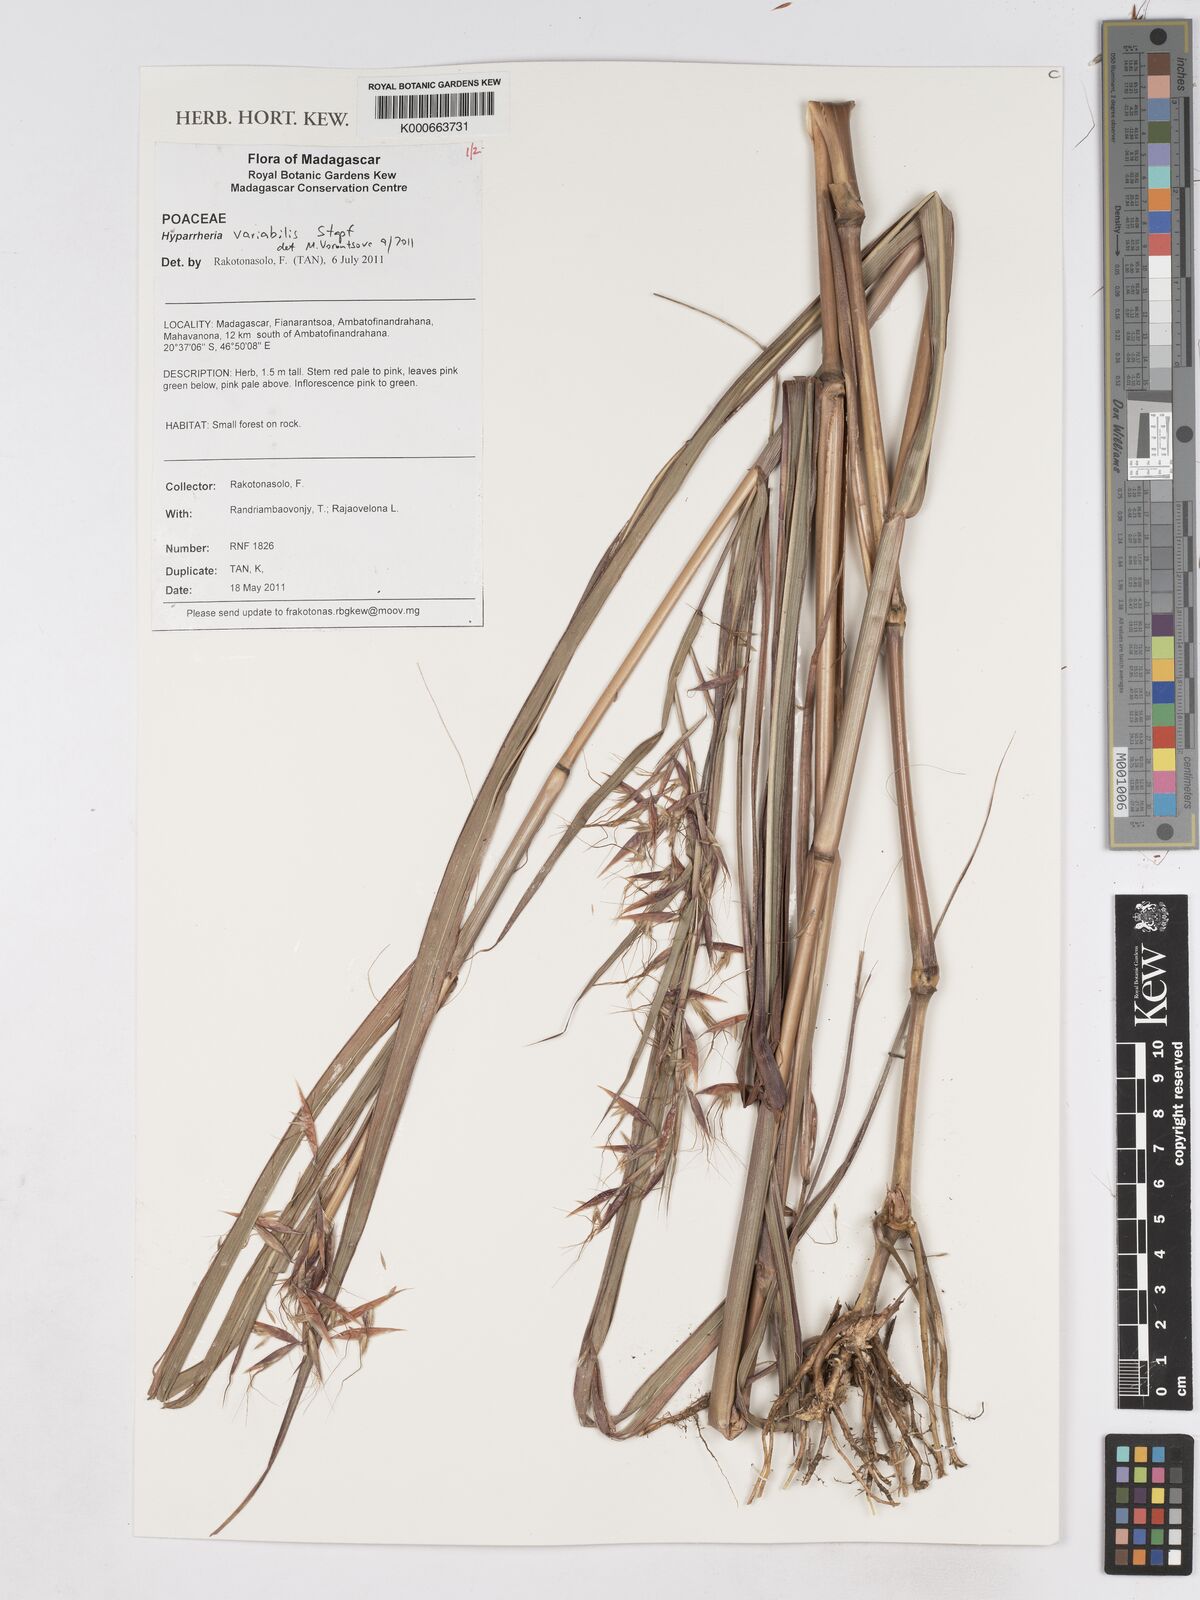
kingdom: Plantae
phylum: Tracheophyta
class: Liliopsida
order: Poales
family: Poaceae
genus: Hyparrhenia
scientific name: Hyparrhenia variabilis
